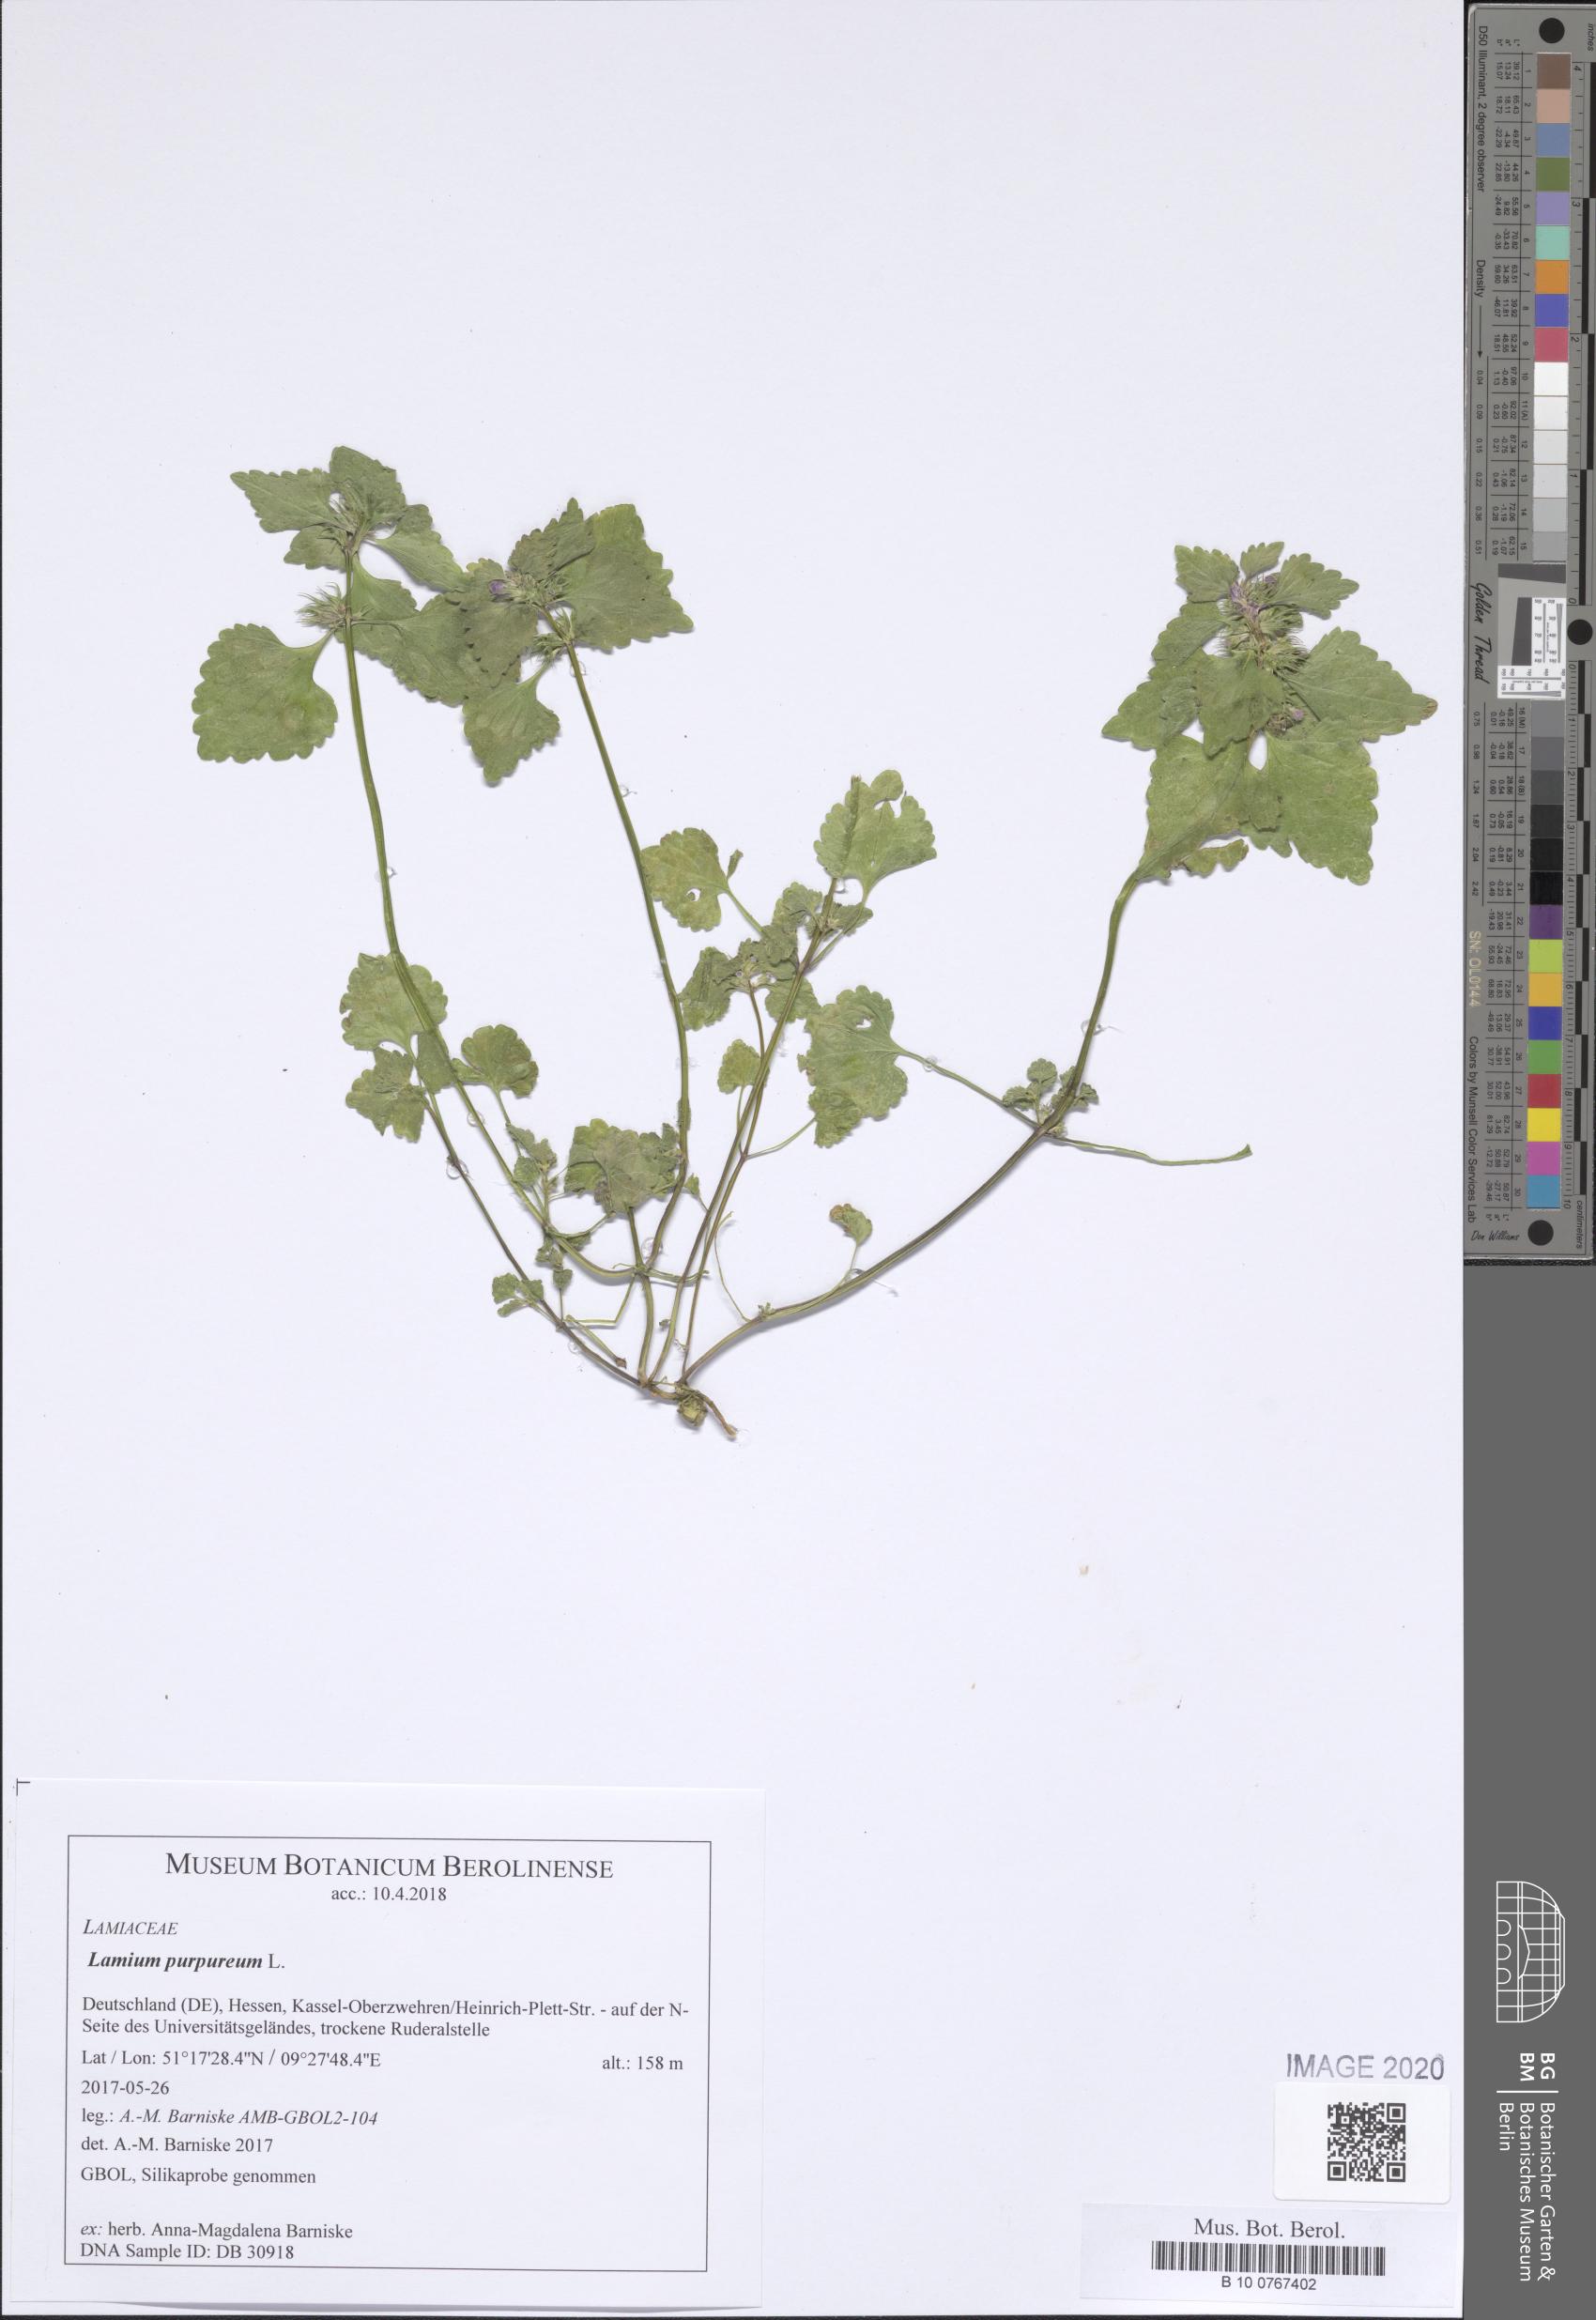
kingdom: Plantae
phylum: Tracheophyta
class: Magnoliopsida
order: Lamiales
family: Lamiaceae
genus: Lamium
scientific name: Lamium purpureum
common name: Red dead-nettle
